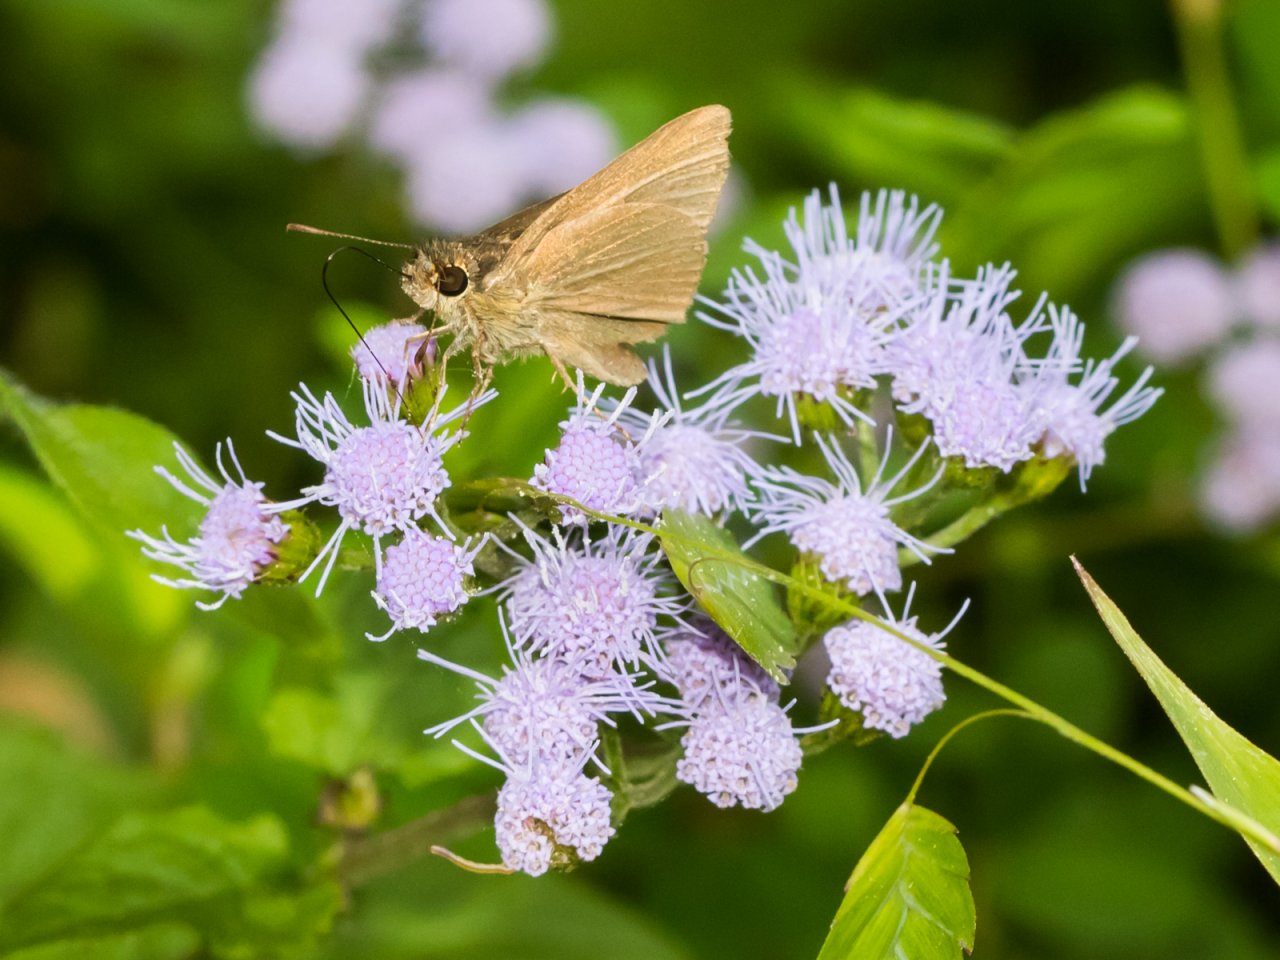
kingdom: Animalia
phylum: Arthropoda
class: Insecta
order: Lepidoptera
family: Hesperiidae
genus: Nastra
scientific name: Nastra lherminier
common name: Swarthy Skipper
